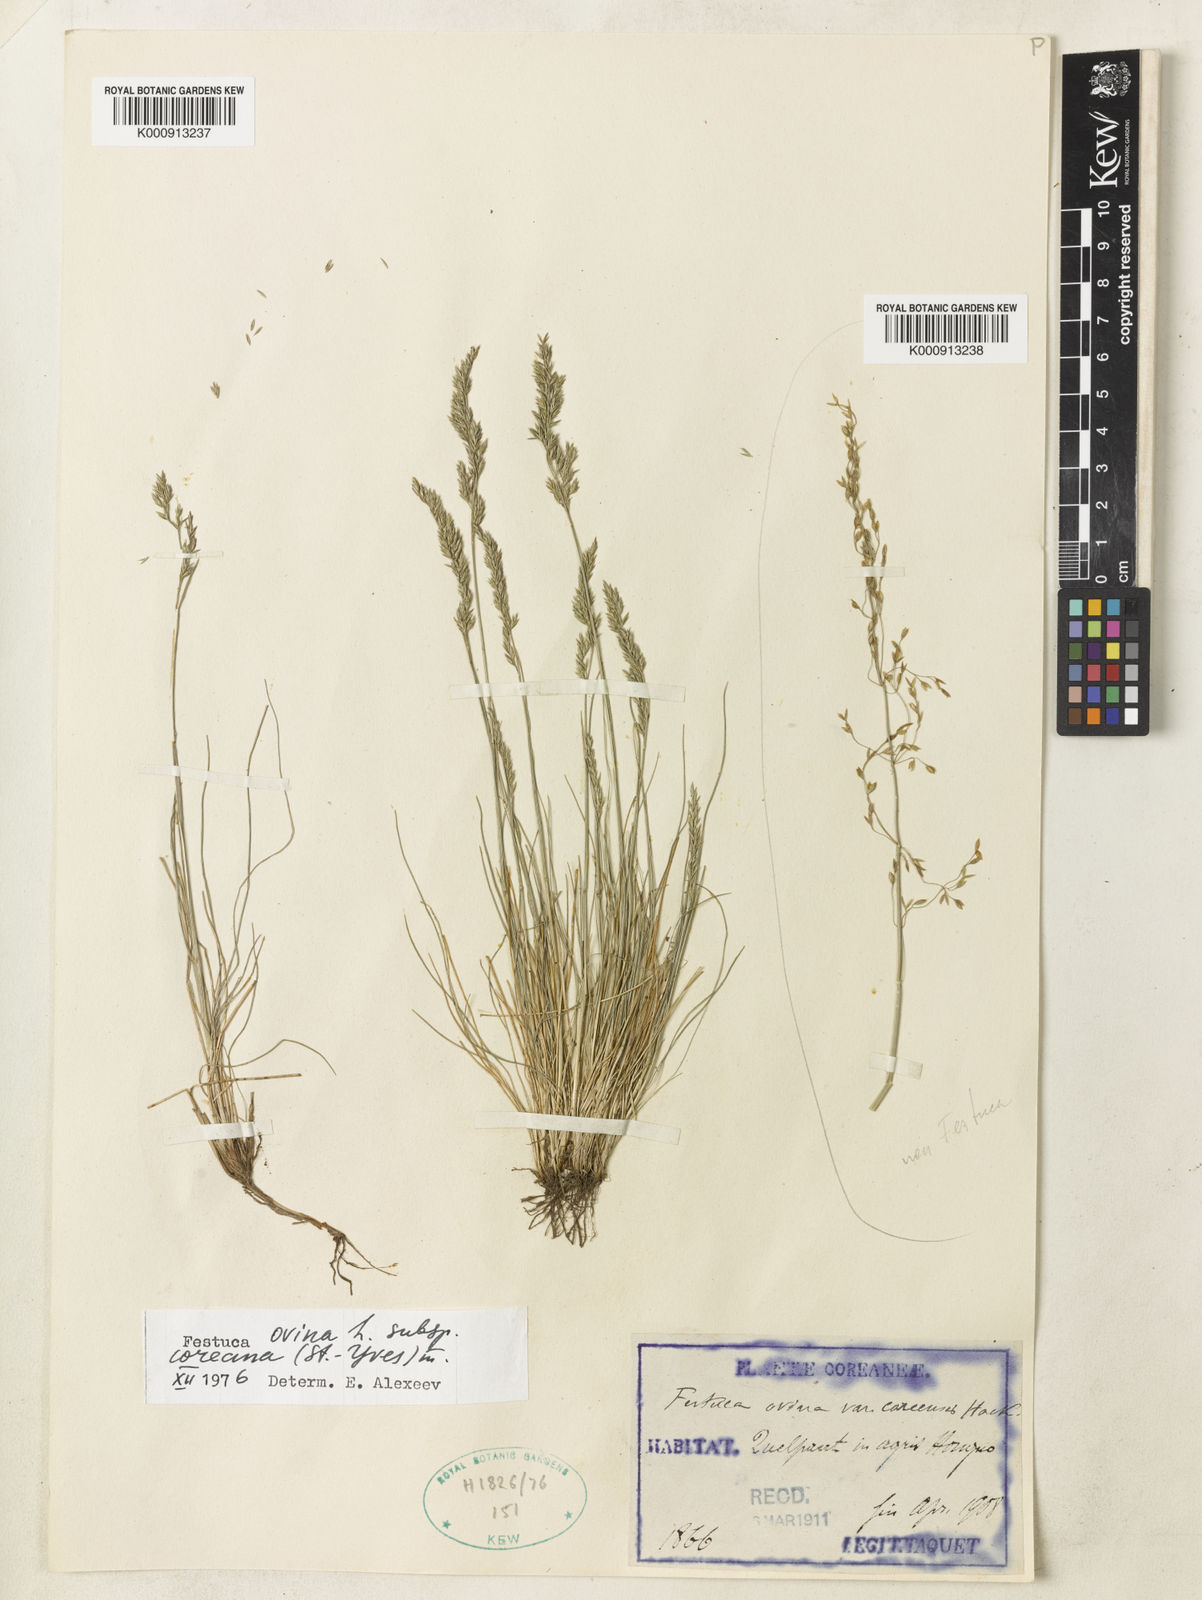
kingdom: Plantae
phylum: Tracheophyta
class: Liliopsida
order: Poales
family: Poaceae
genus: Festuca
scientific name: Festuca ovina
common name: Sheep fescue
